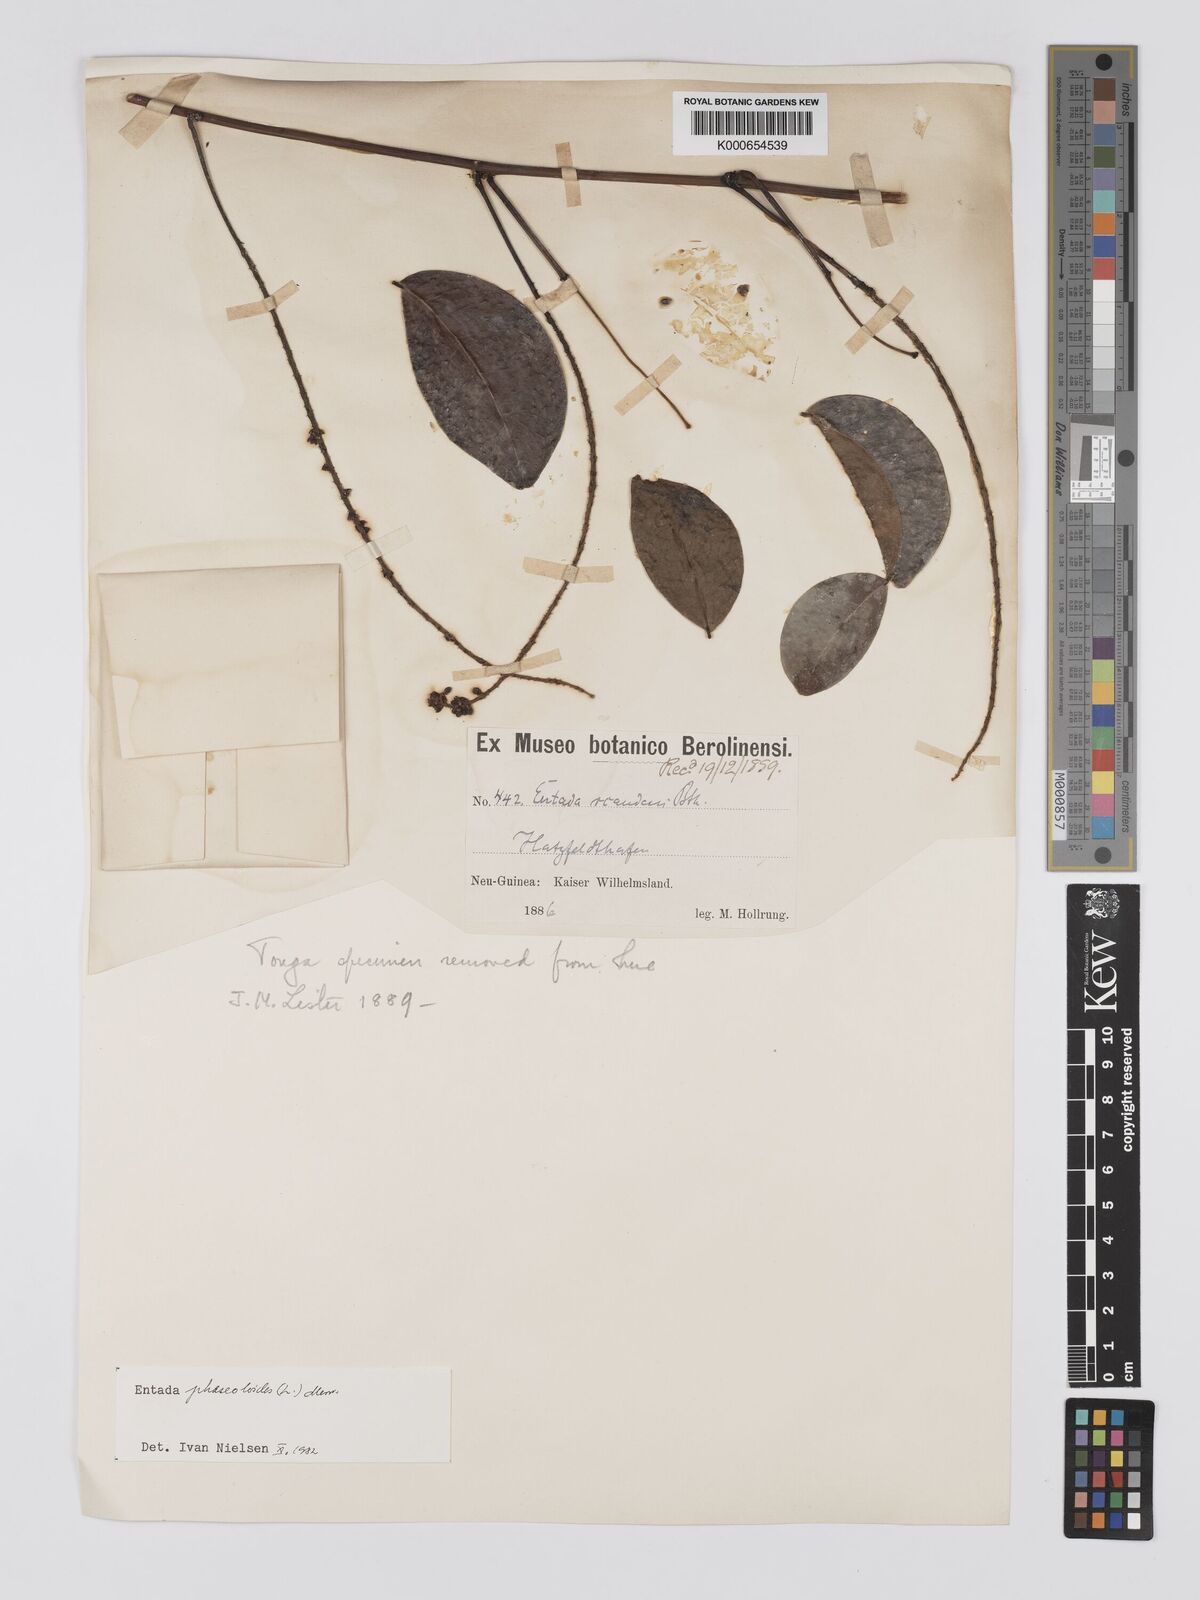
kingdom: Plantae
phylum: Tracheophyta
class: Magnoliopsida
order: Fabales
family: Fabaceae
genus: Entada
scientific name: Entada phaseoloides
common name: Matchbox-bean
